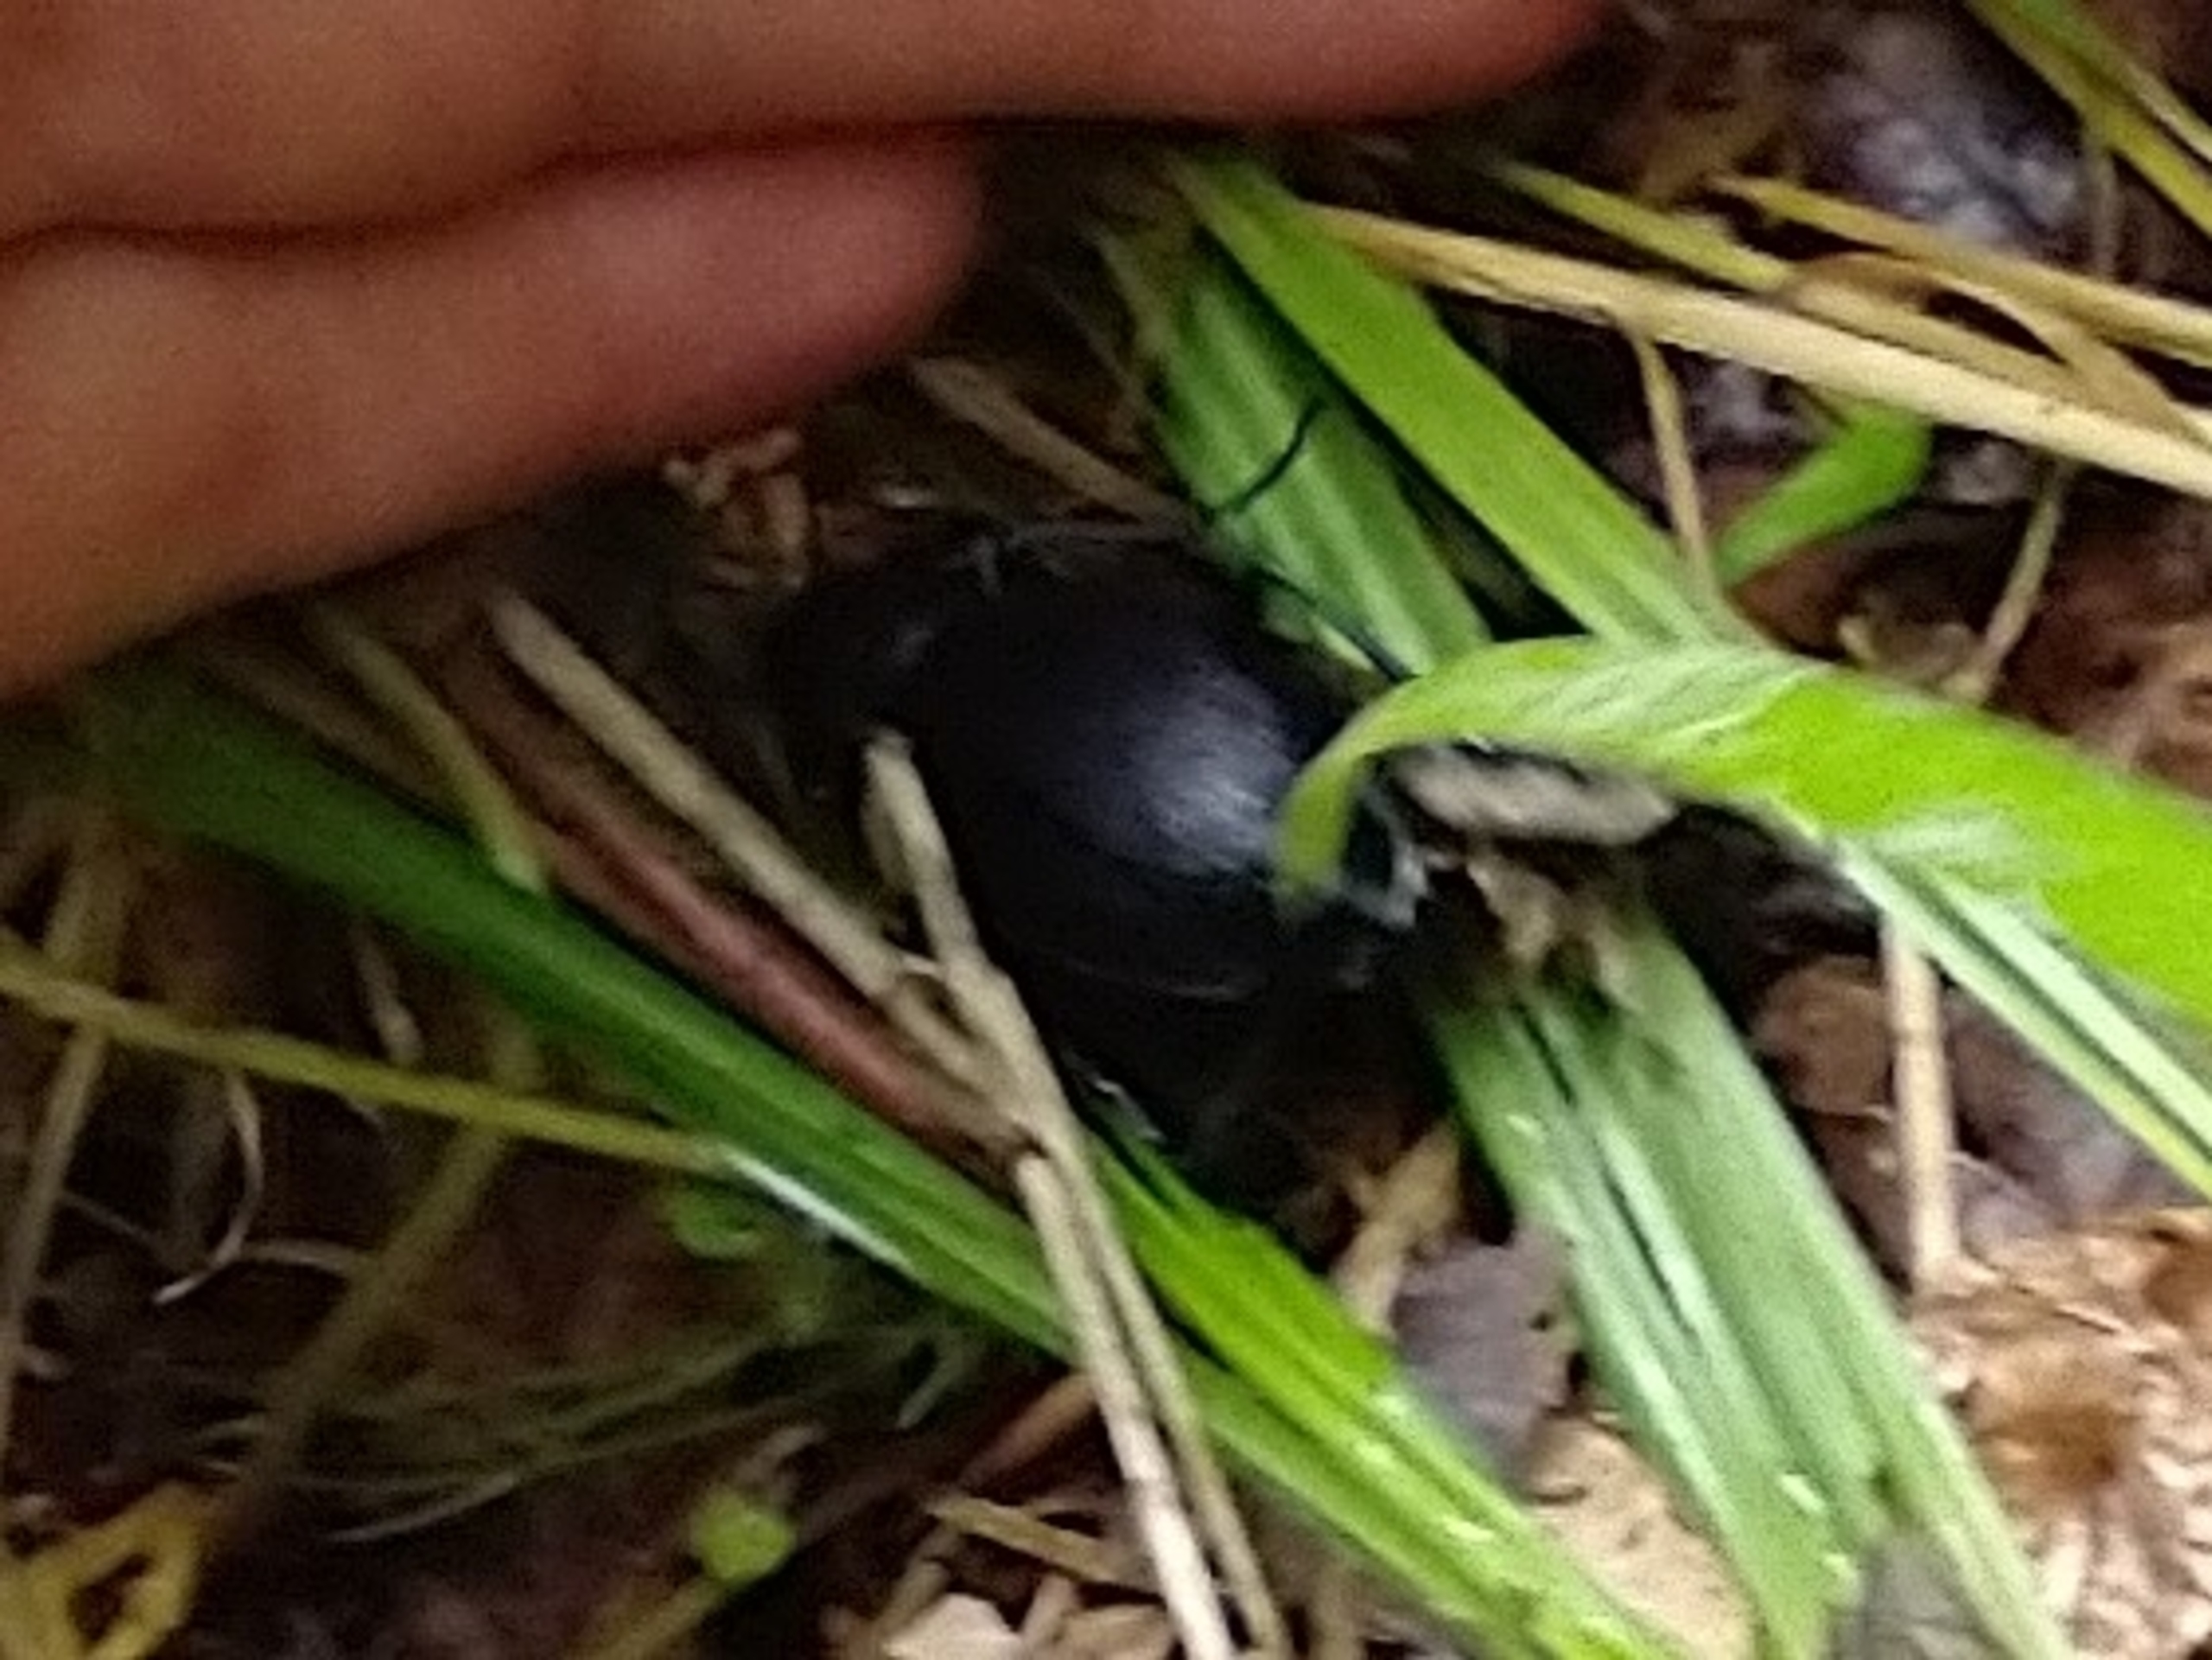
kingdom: Animalia
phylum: Arthropoda
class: Insecta
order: Coleoptera
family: Carabidae
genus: Carabus
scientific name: Carabus coriaceus
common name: Læderløber
